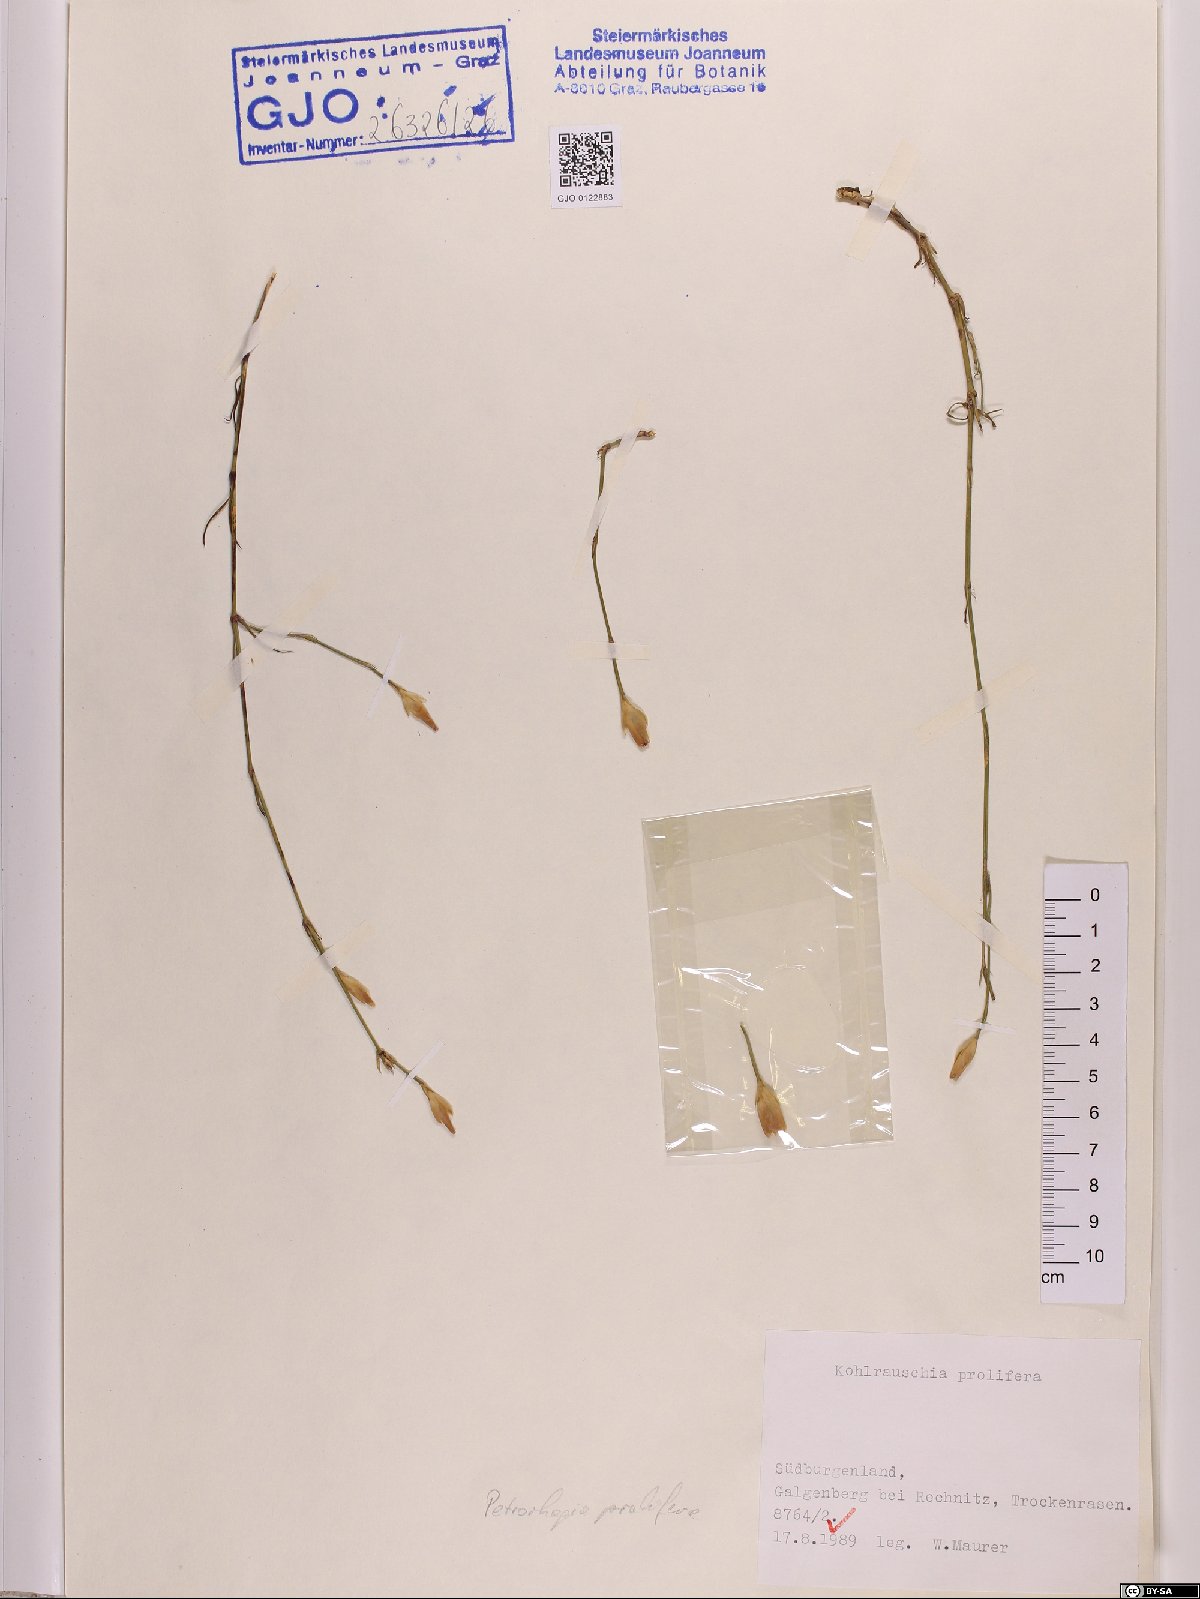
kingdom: Plantae
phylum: Tracheophyta
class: Magnoliopsida
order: Caryophyllales
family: Caryophyllaceae
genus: Petrorhagia
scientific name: Petrorhagia prolifera
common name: Proliferous pink
